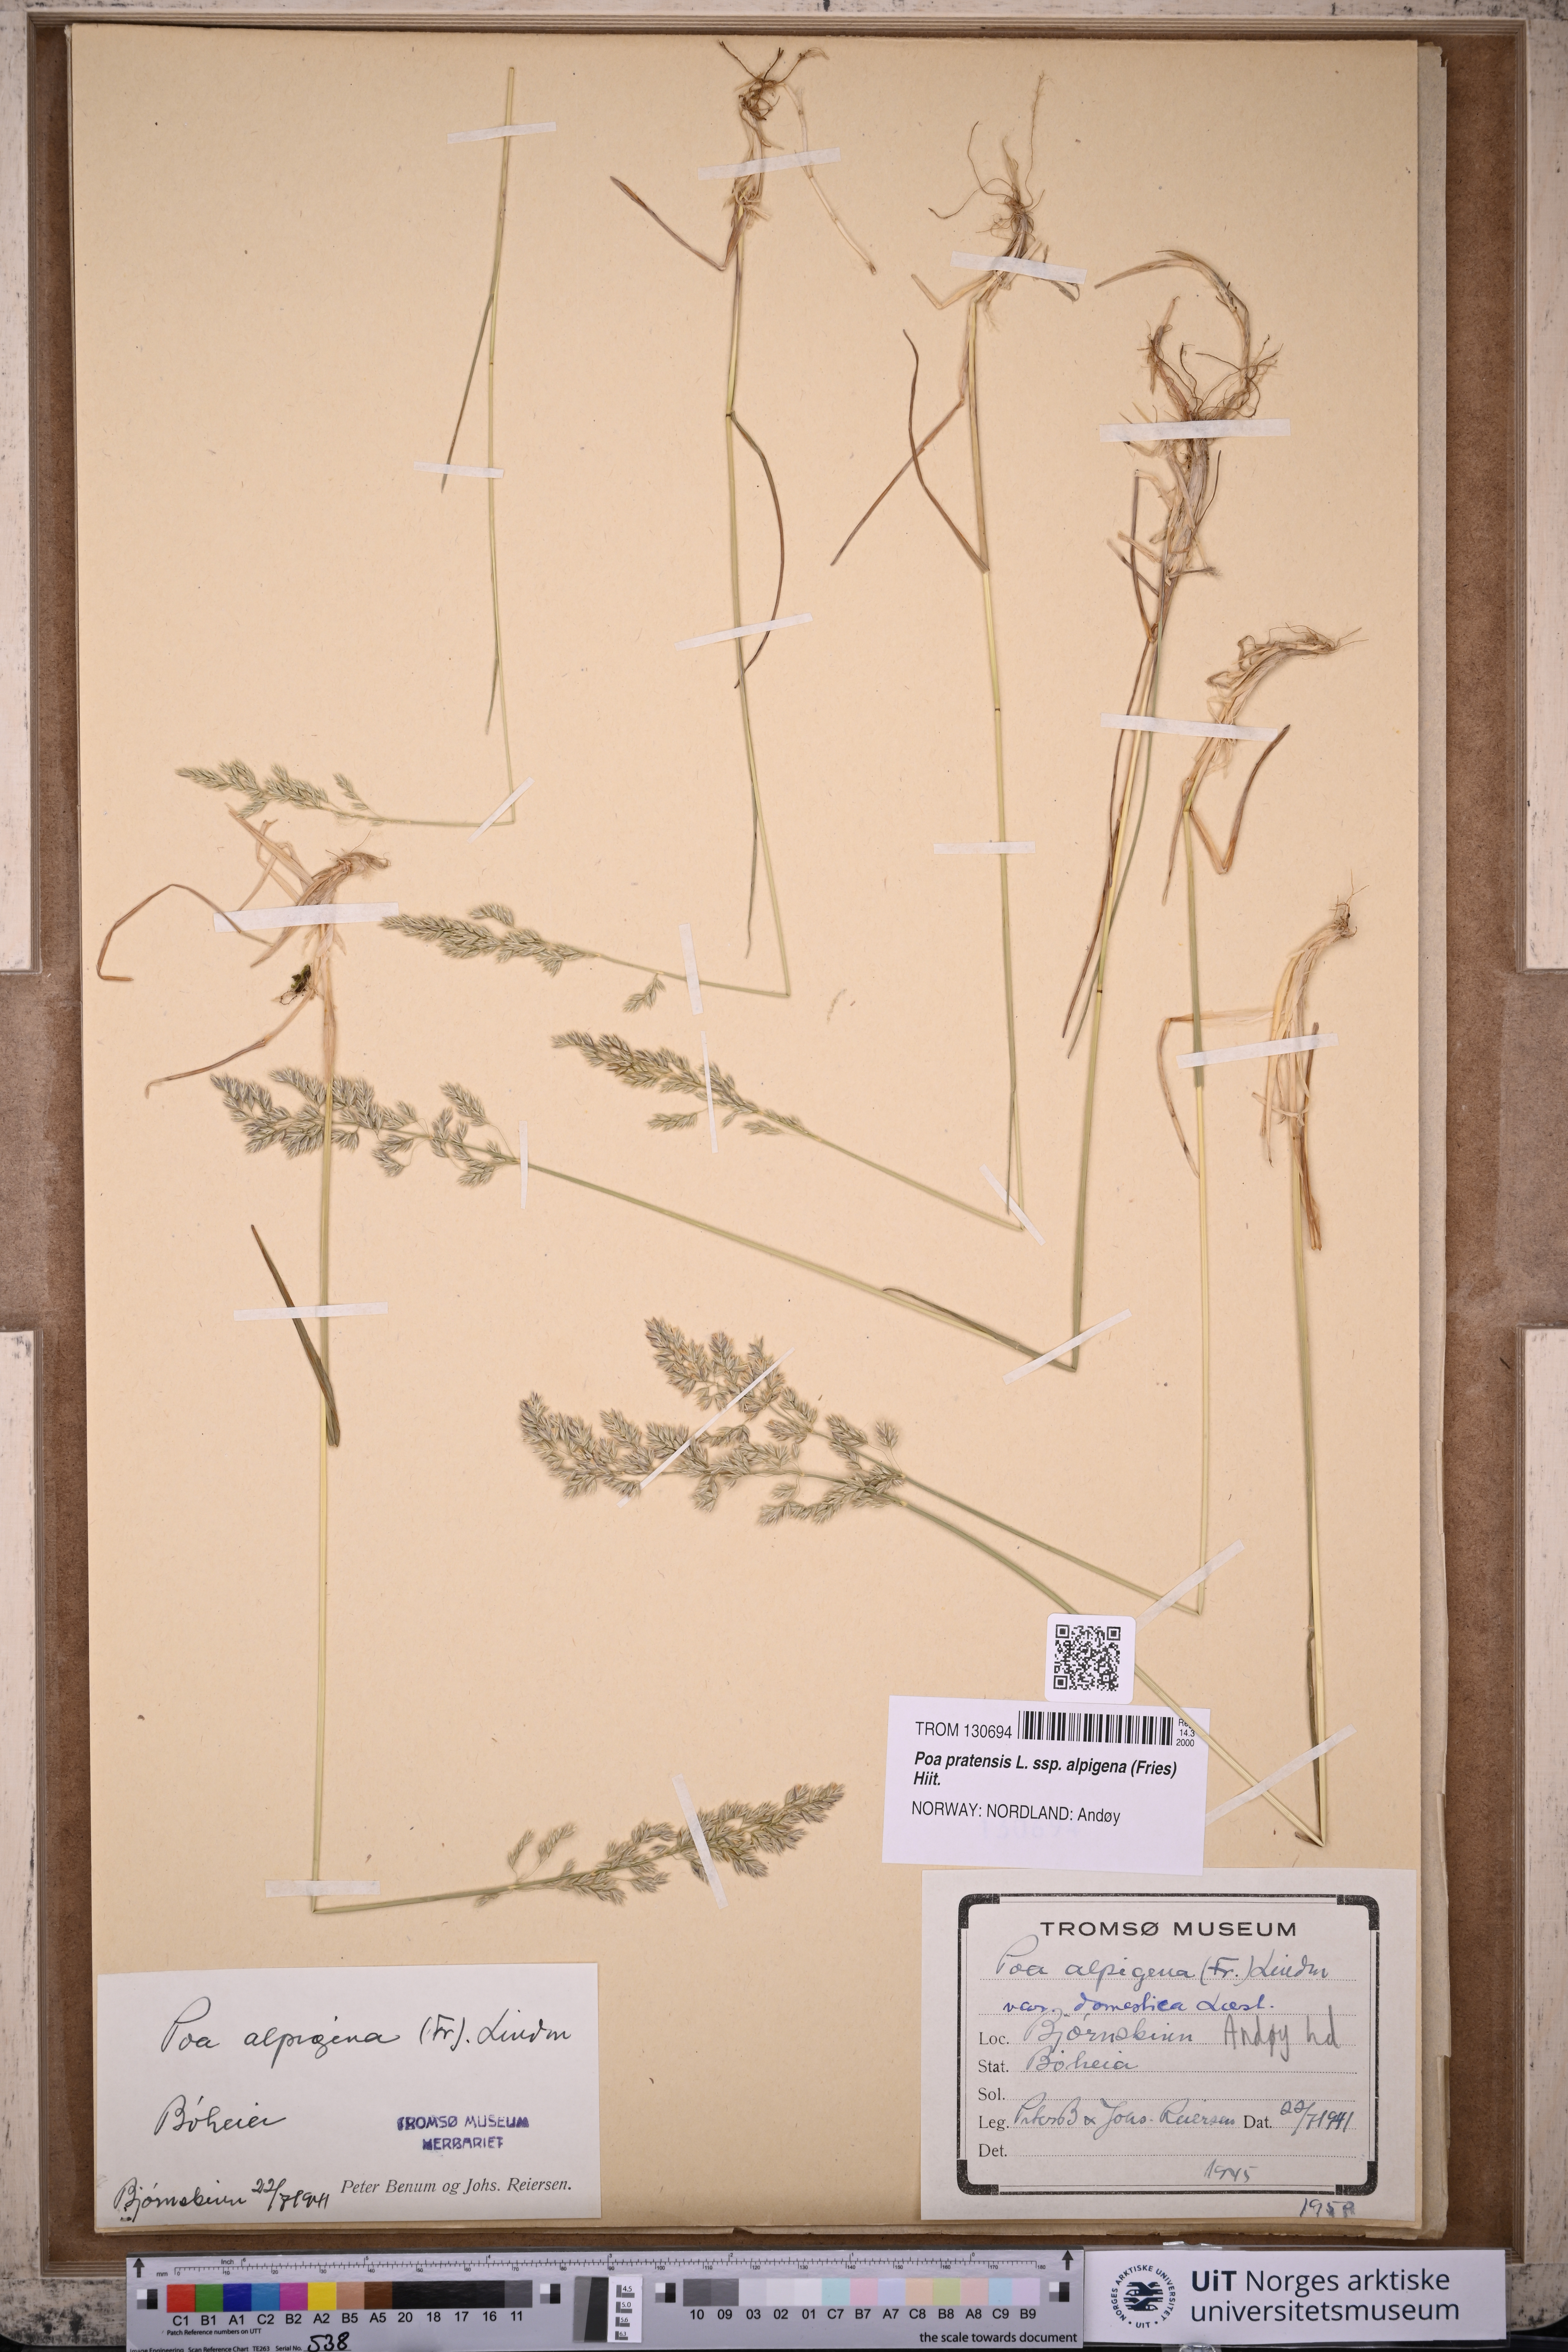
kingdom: Plantae
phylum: Tracheophyta
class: Liliopsida
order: Poales
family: Poaceae
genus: Poa
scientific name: Poa alpigena
